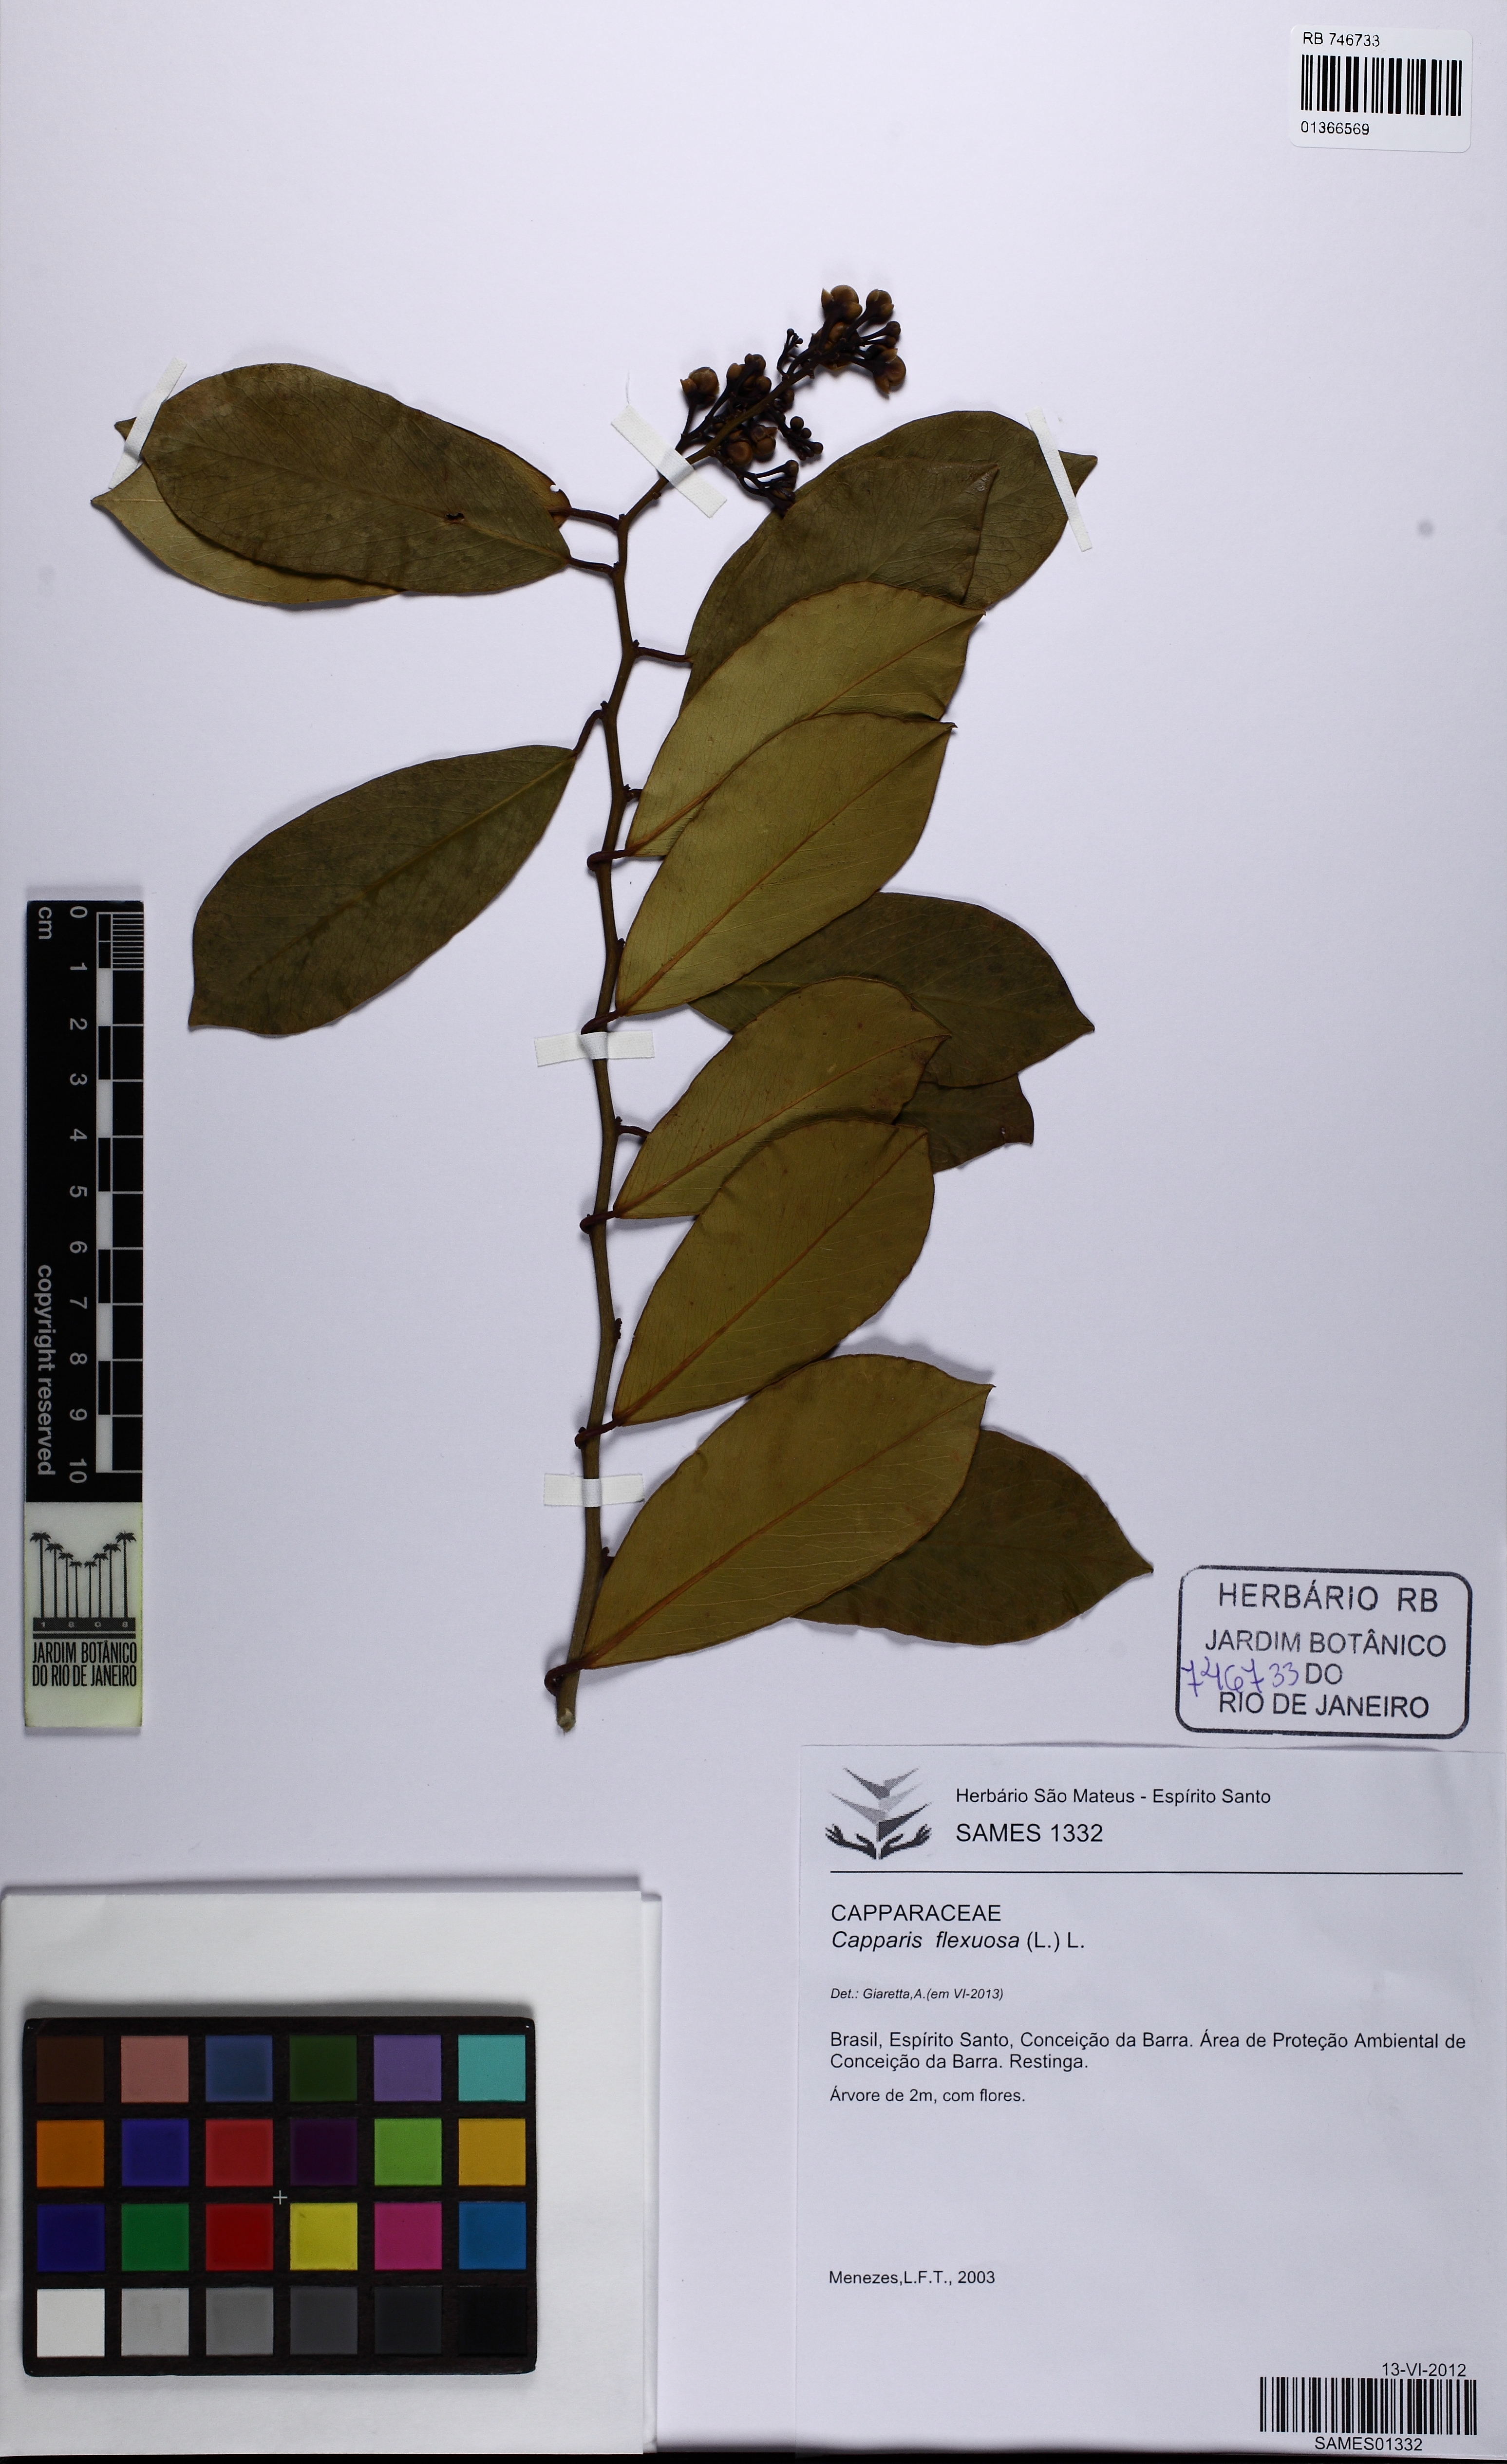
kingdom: Plantae
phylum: Tracheophyta
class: Magnoliopsida
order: Brassicales
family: Capparaceae
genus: Cynophalla
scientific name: Cynophalla flexuosa
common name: Capertree
